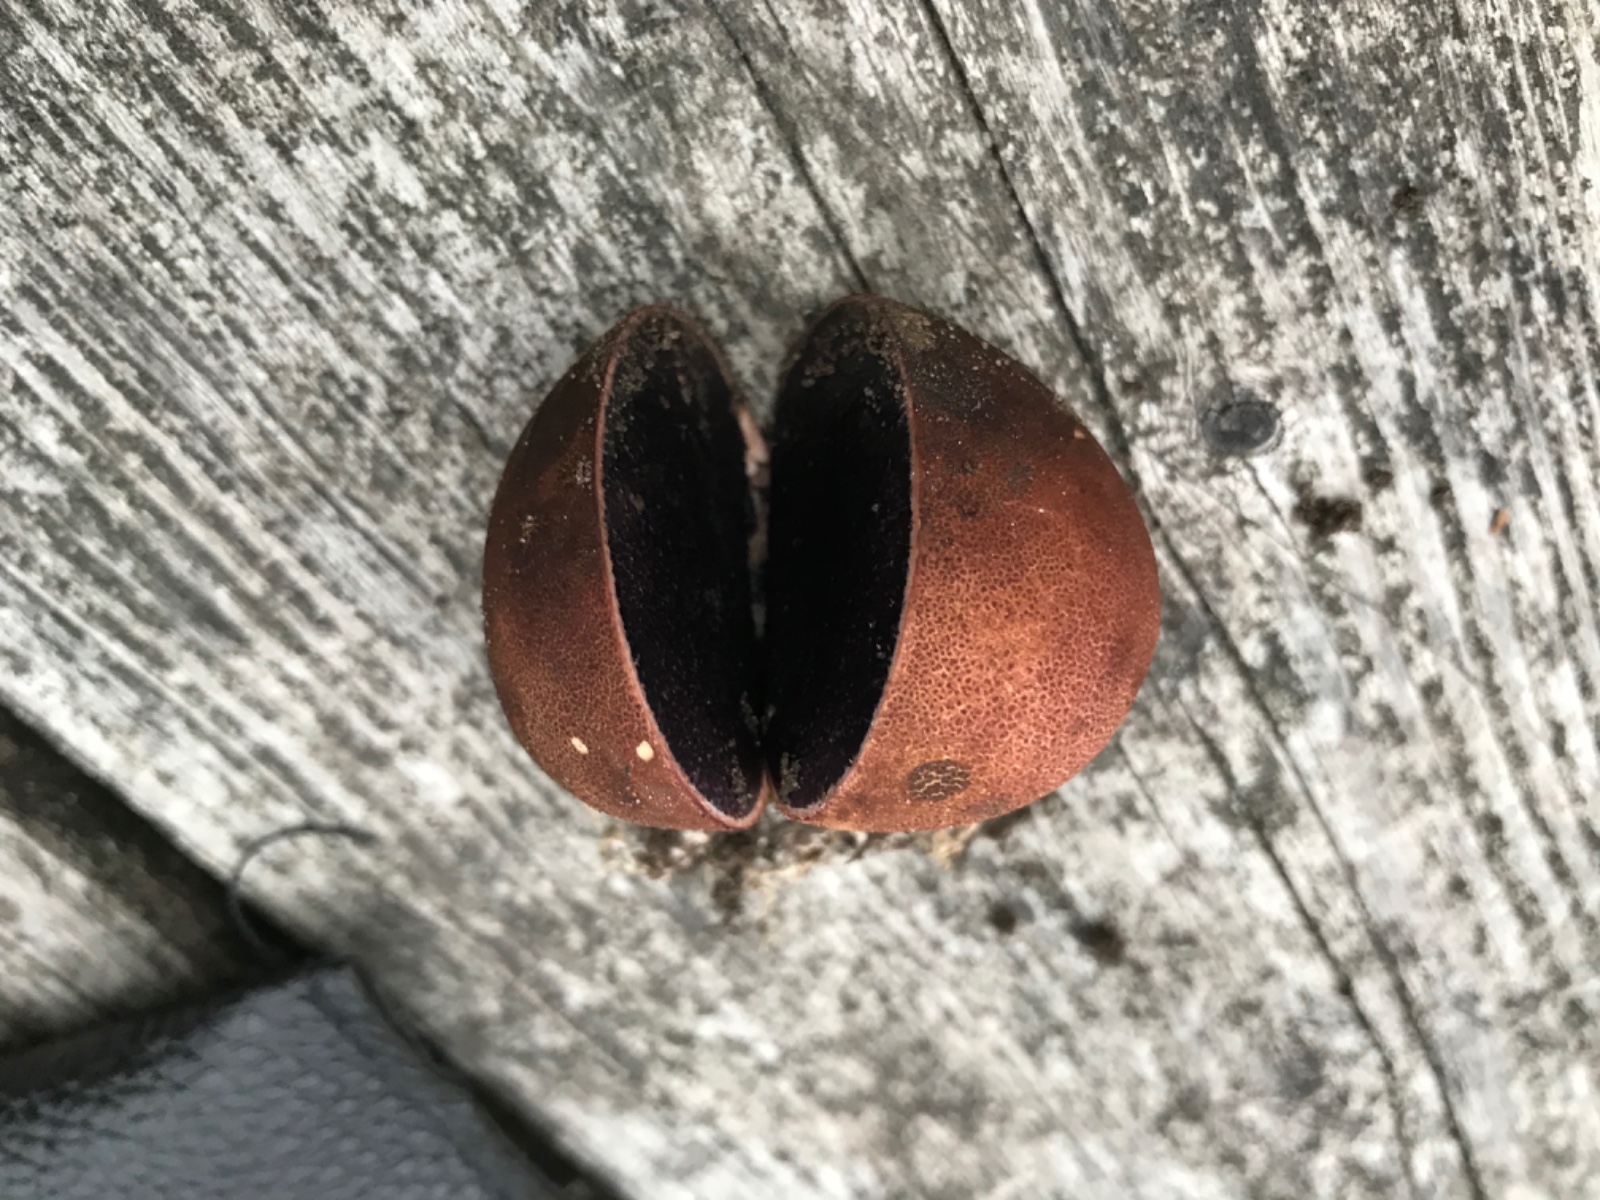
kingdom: Fungi
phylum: Basidiomycota
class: Agaricomycetes
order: Boletales
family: Sclerodermataceae
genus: Scleroderma
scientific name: Scleroderma
